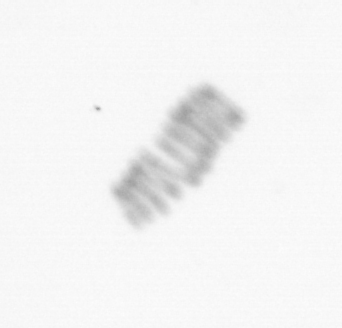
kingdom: Chromista
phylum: Ochrophyta
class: Bacillariophyceae
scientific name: Bacillariophyceae
